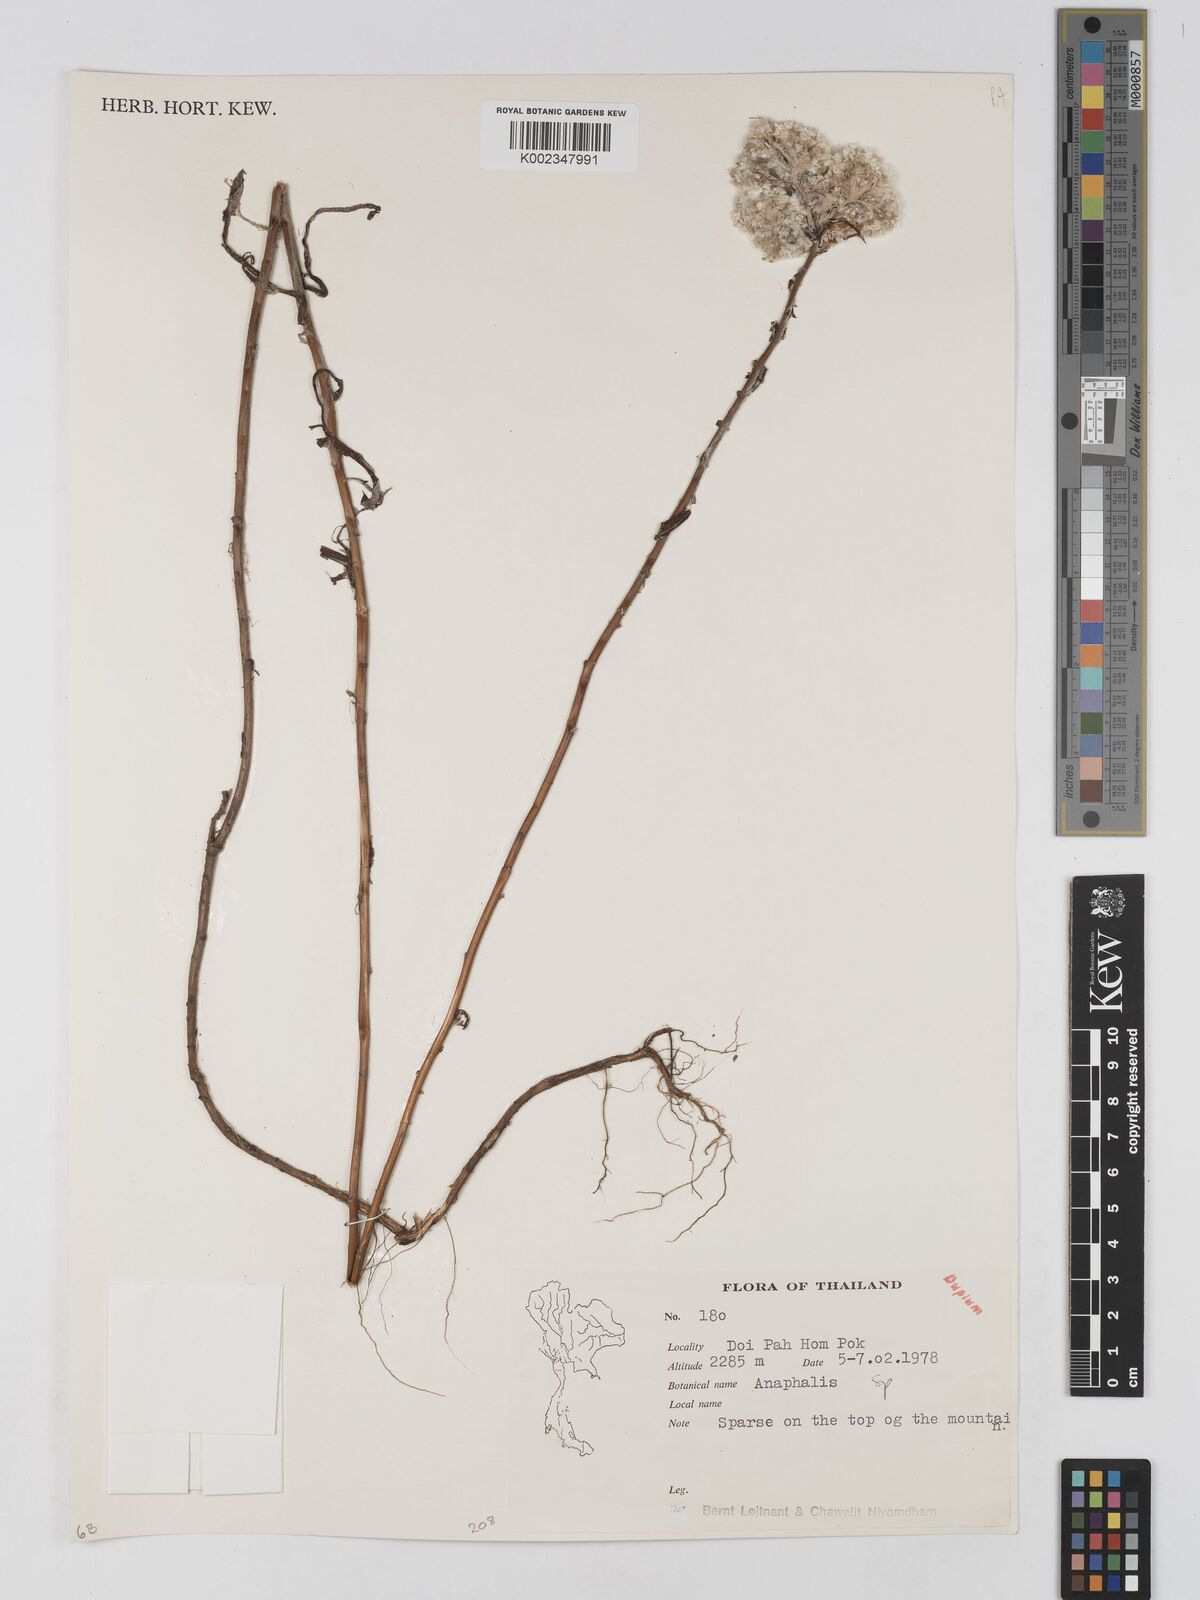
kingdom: Plantae
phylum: Tracheophyta
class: Magnoliopsida
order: Asterales
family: Asteraceae
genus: Anaphalis
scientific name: Anaphalis
